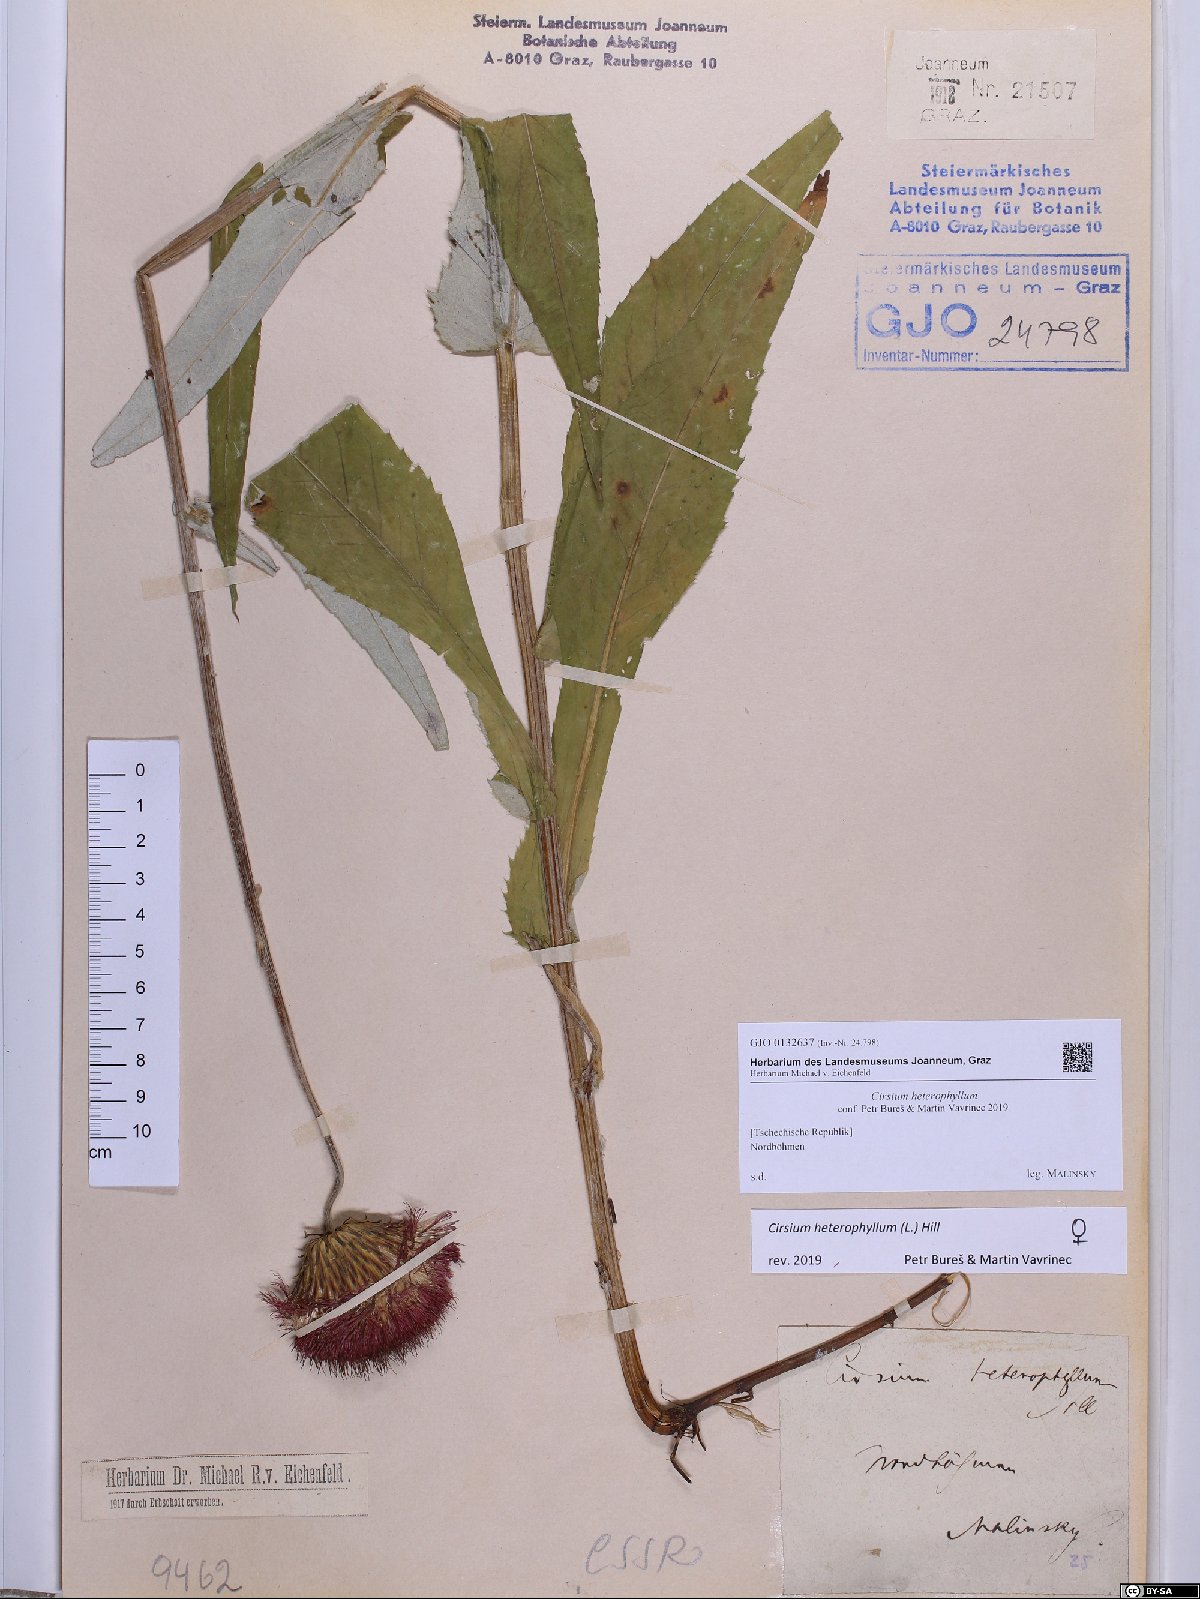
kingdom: Plantae
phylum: Tracheophyta
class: Magnoliopsida
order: Asterales
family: Asteraceae
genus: Cirsium
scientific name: Cirsium heterophyllum
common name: Melancholy thistle
